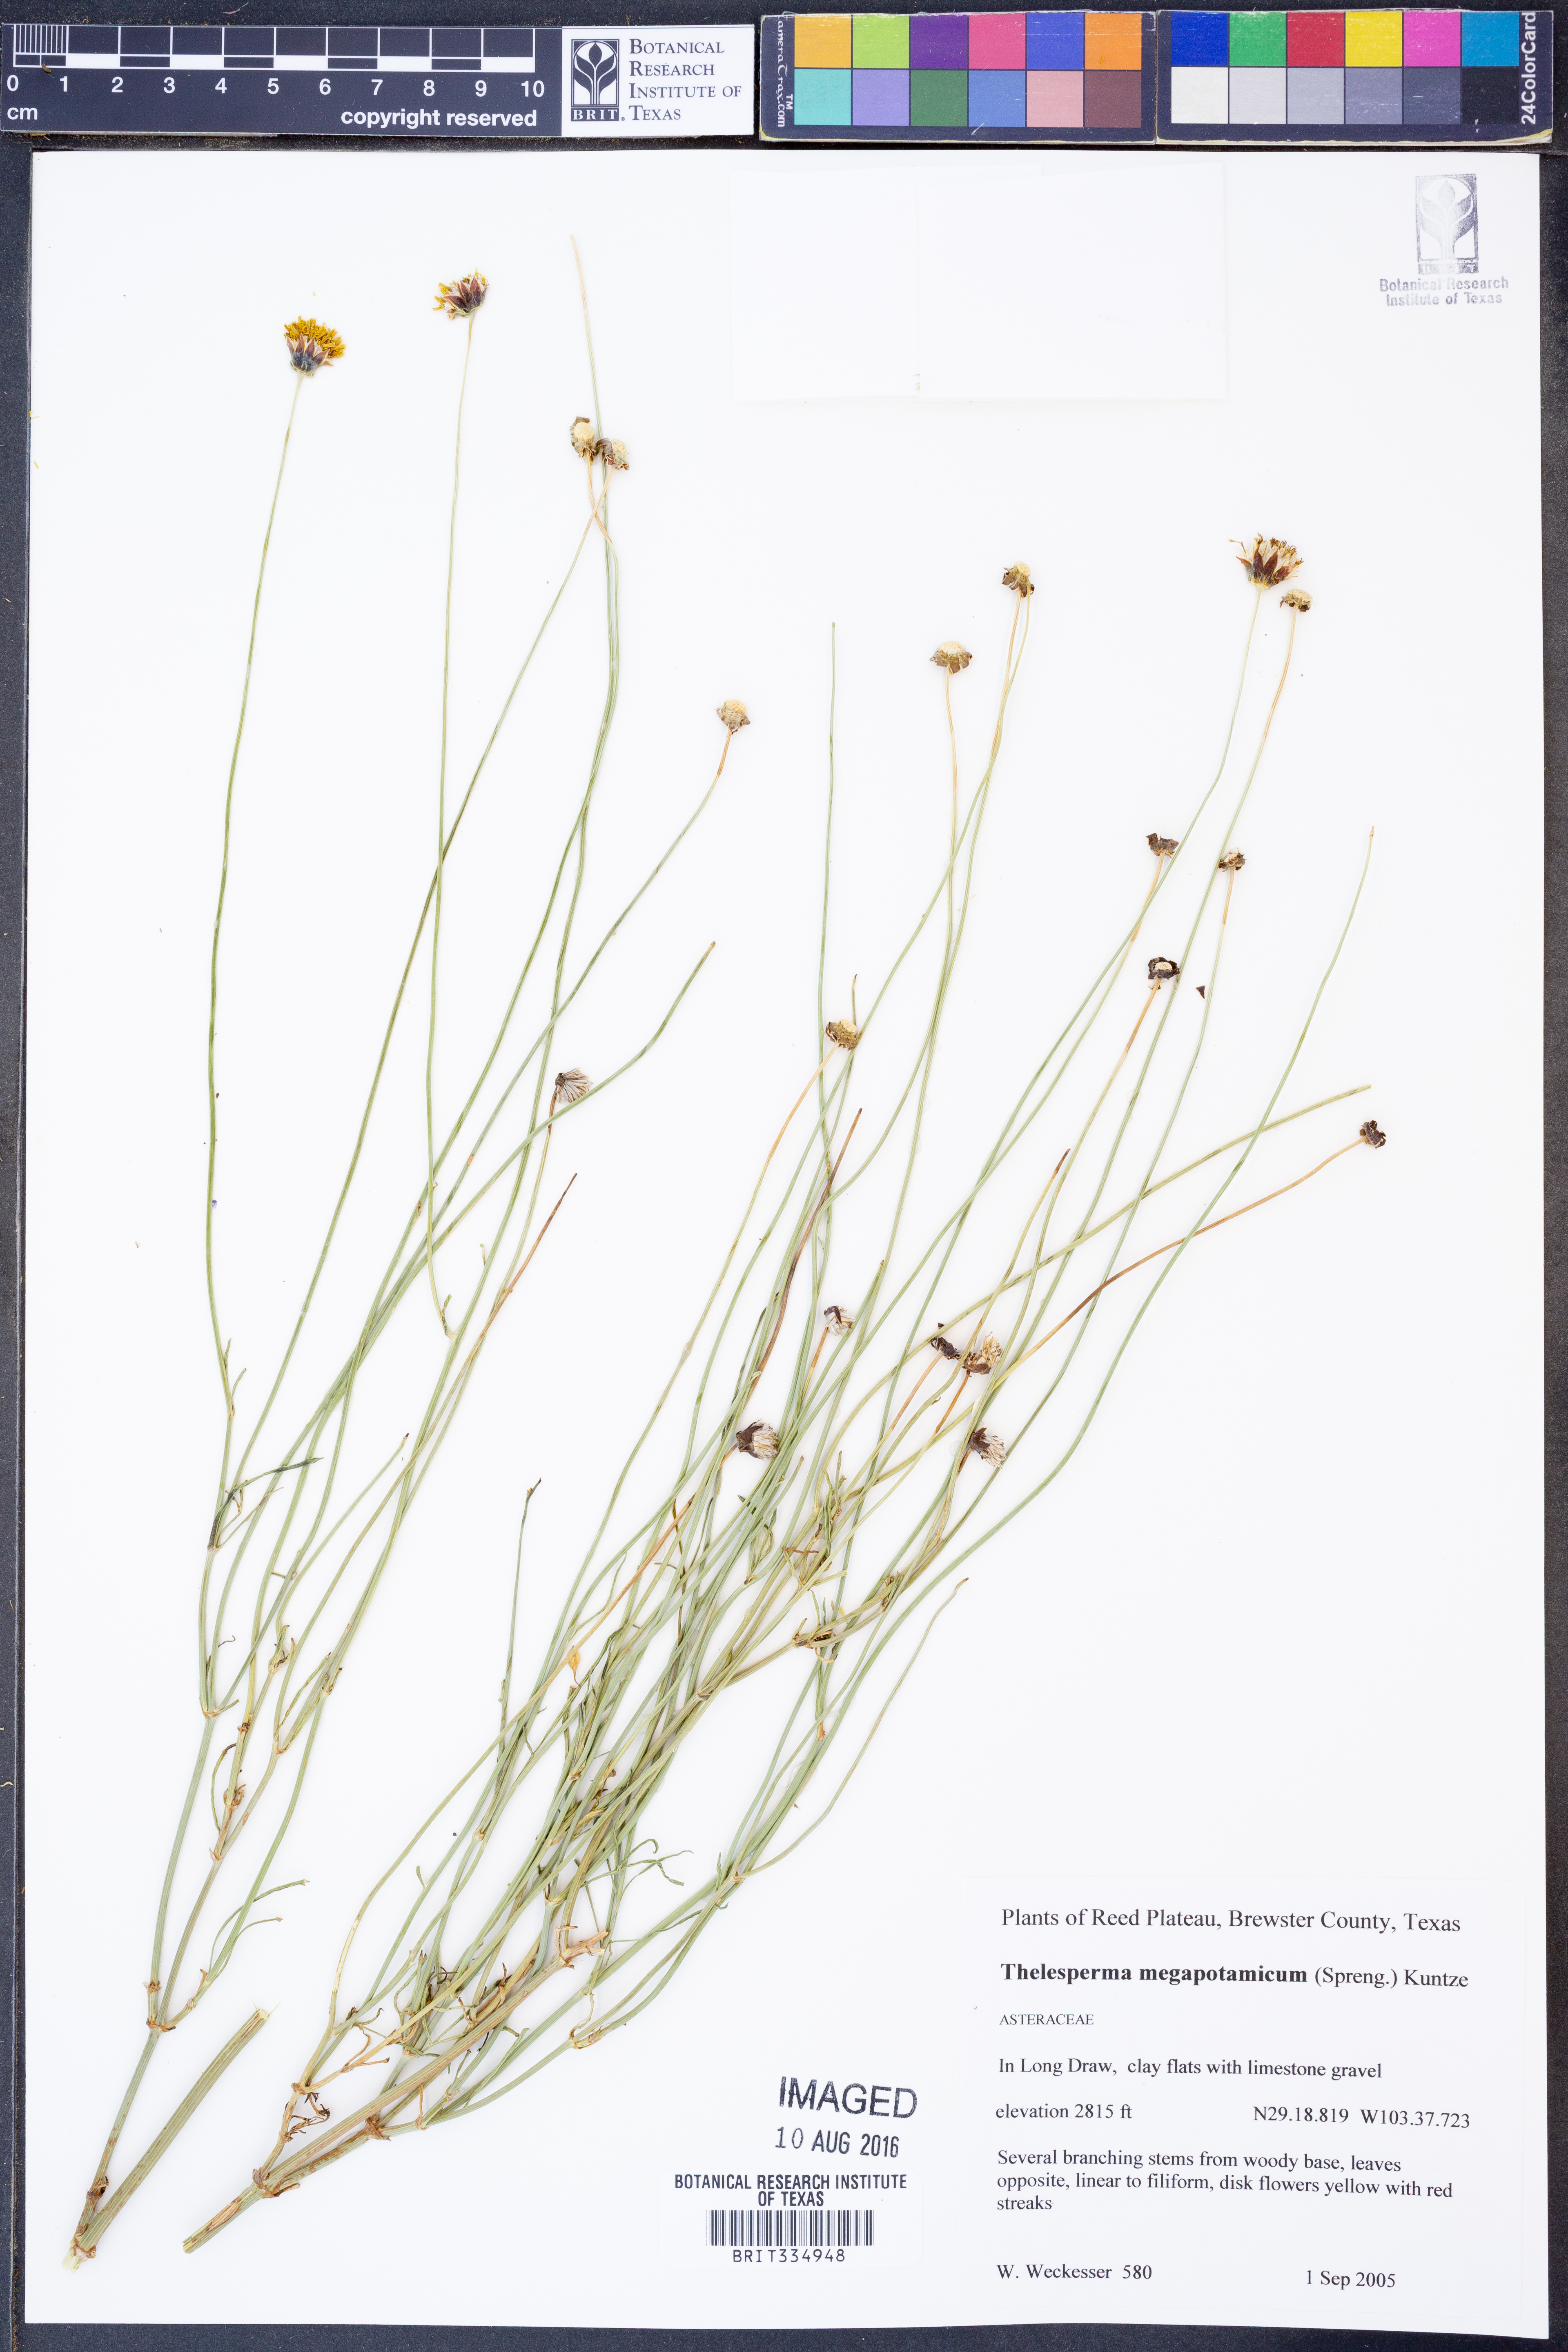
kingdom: Plantae
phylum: Tracheophyta
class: Magnoliopsida
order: Asterales
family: Asteraceae
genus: Thelesperma
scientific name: Thelesperma megapotamicum
